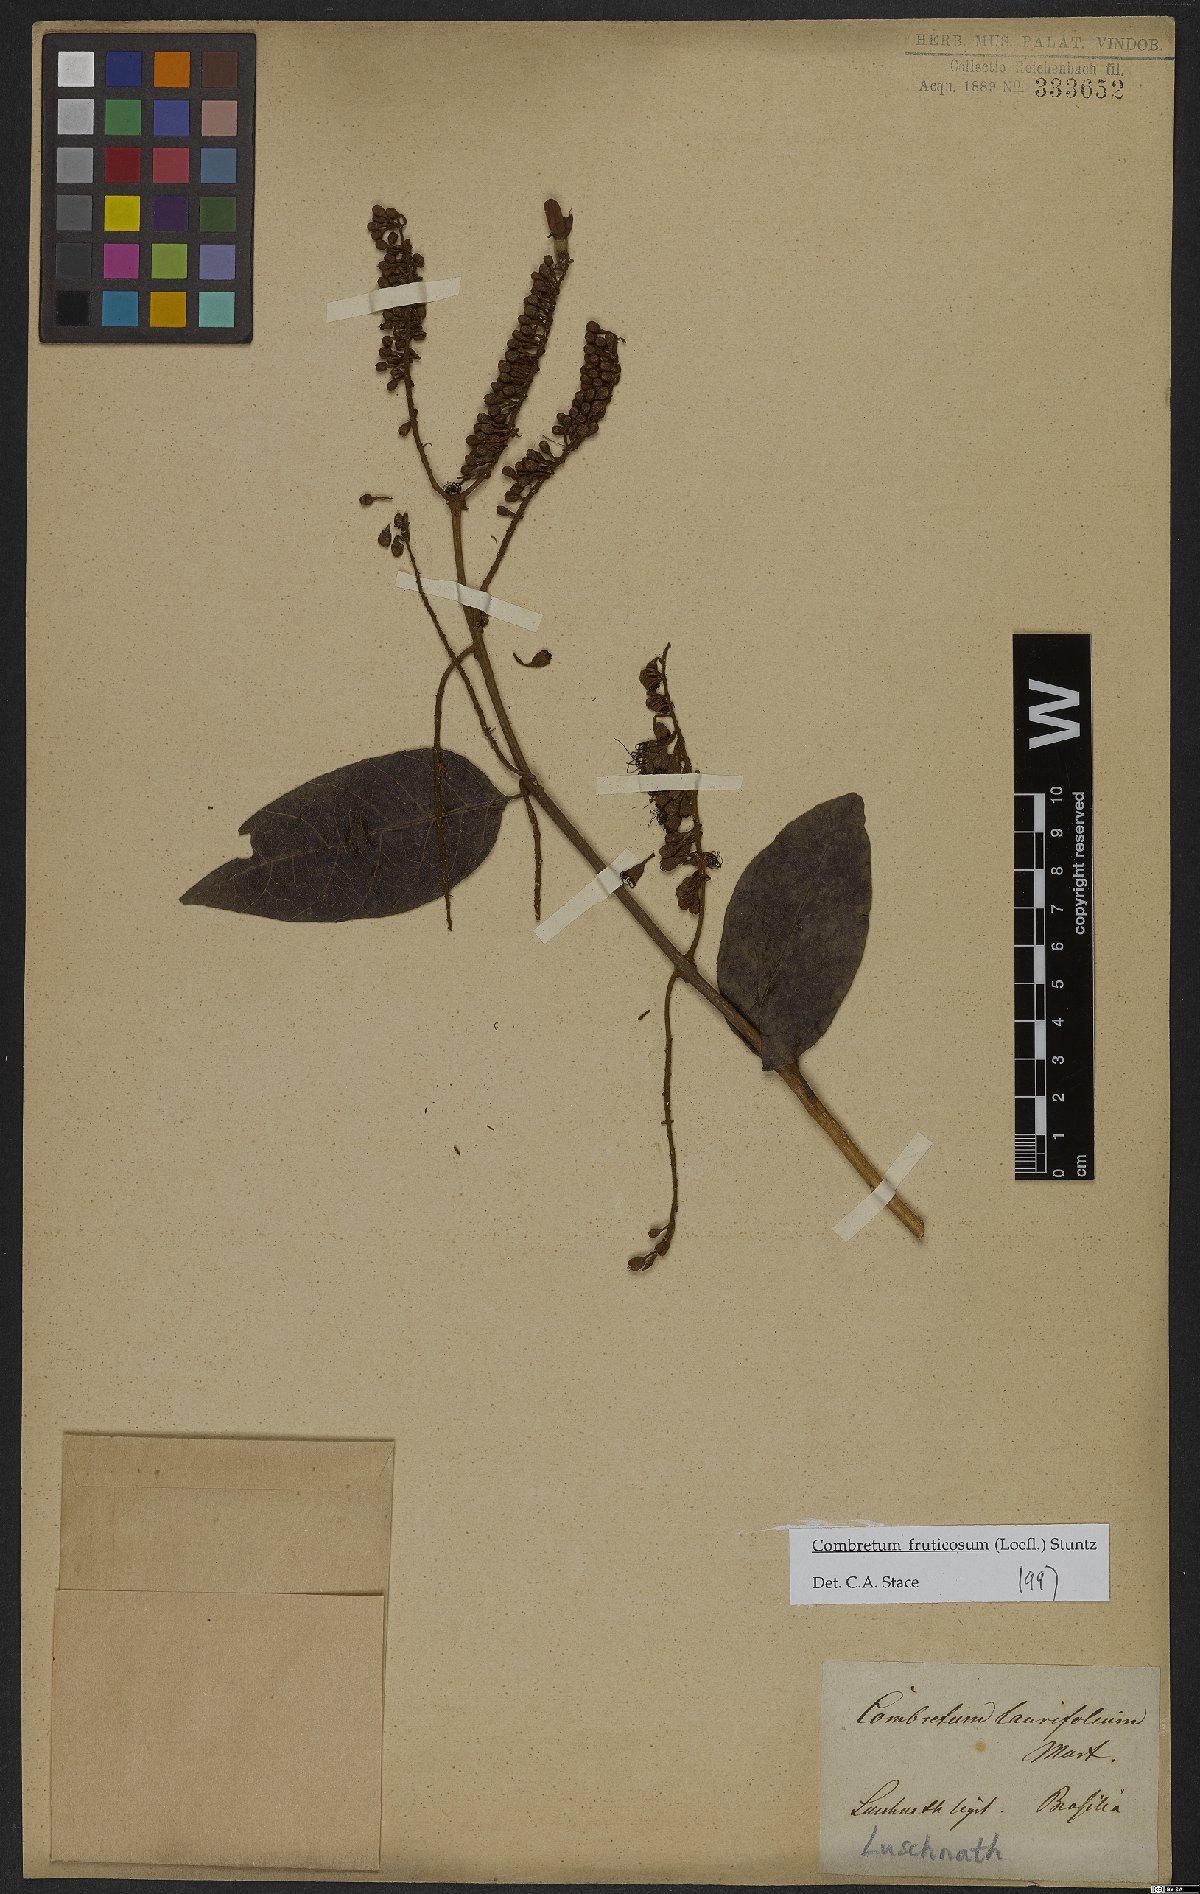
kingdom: Plantae
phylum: Tracheophyta
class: Magnoliopsida
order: Myrtales
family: Combretaceae
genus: Combretum
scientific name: Combretum fruticosum
